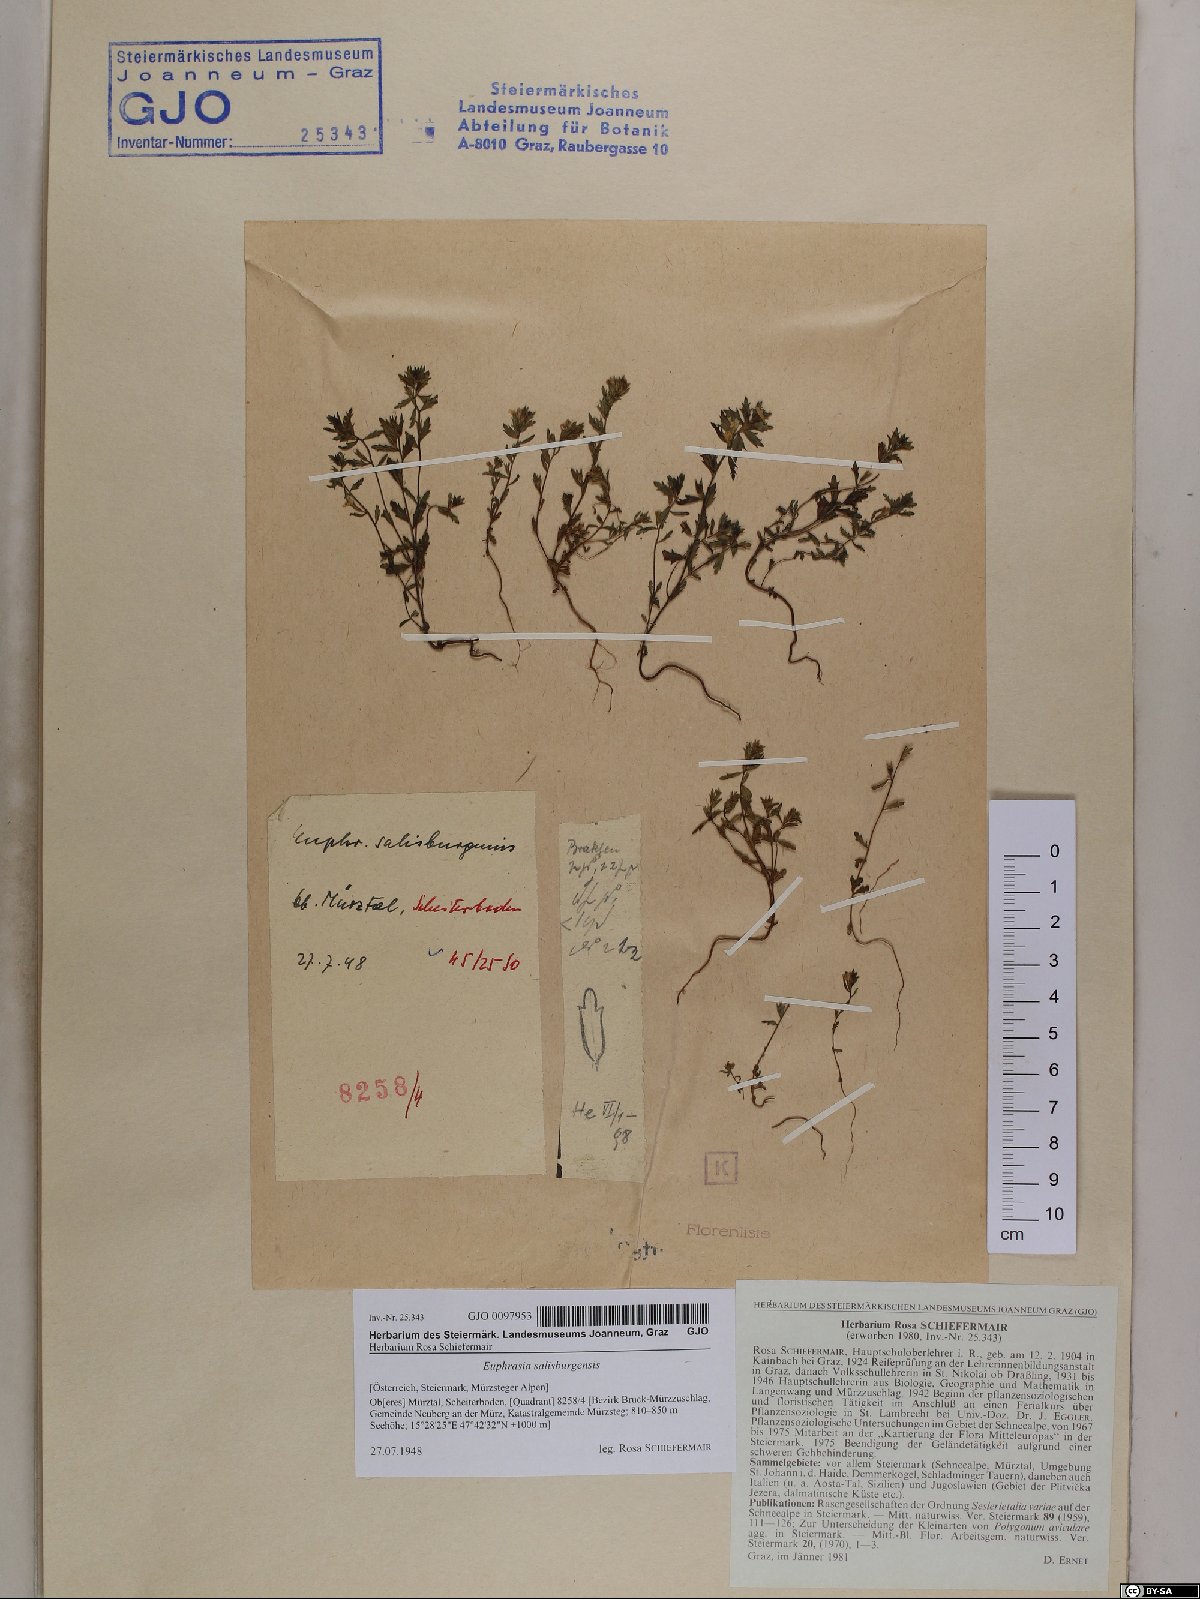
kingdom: Plantae
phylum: Tracheophyta
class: Magnoliopsida
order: Lamiales
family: Orobanchaceae
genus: Euphrasia
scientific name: Euphrasia salisburgensis
